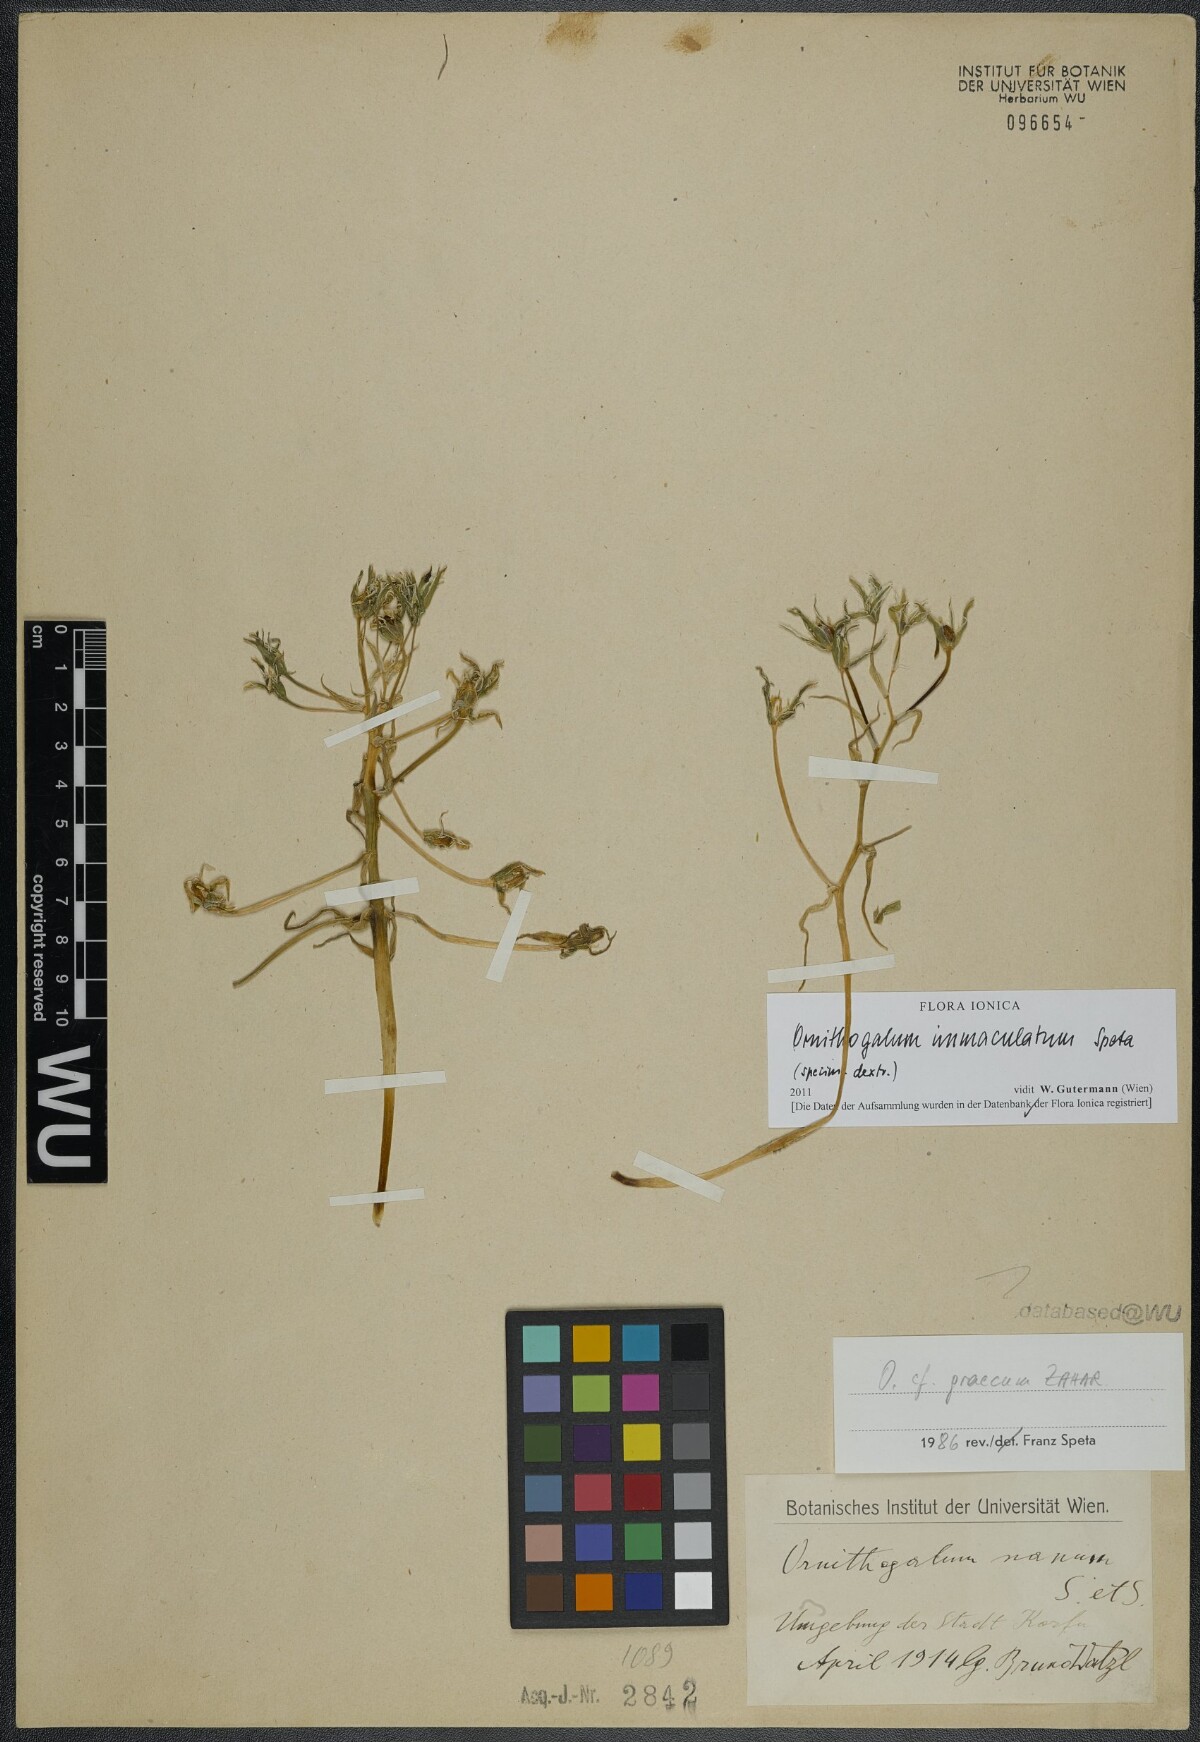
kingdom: Plantae
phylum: Tracheophyta
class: Liliopsida
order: Asparagales
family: Asparagaceae
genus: Ornithogalum
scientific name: Ornithogalum immaculatum
